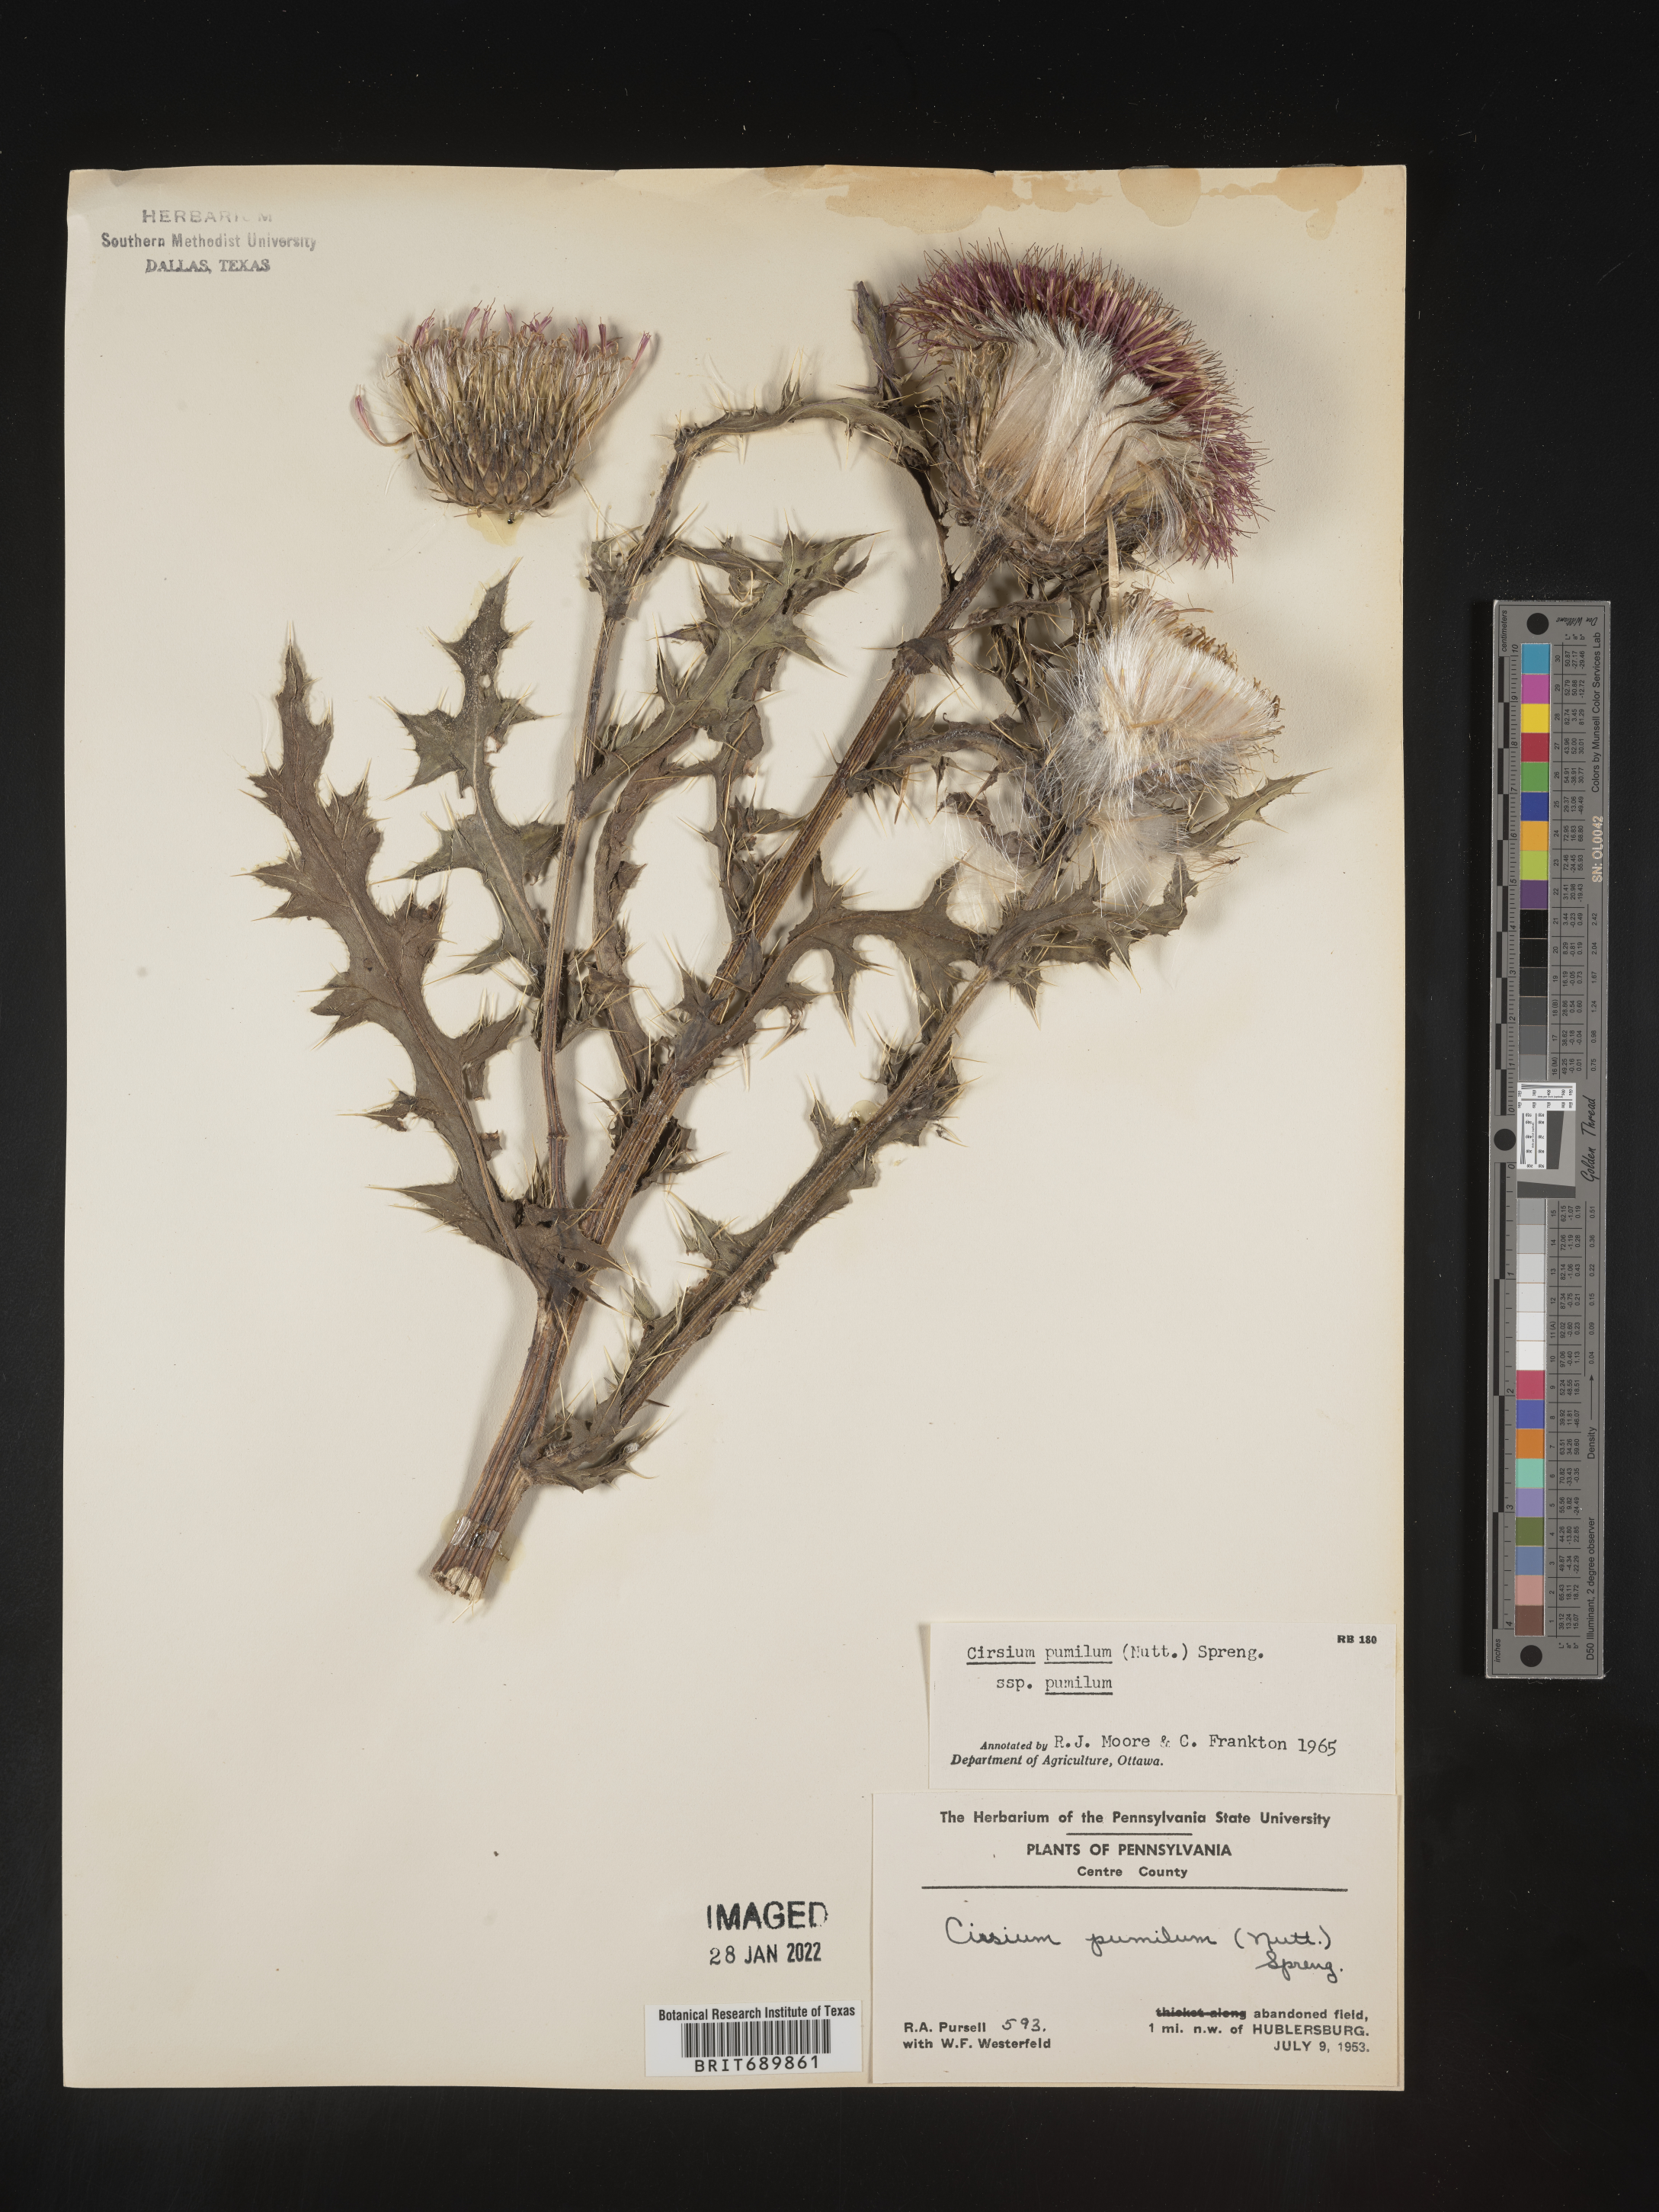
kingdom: Plantae
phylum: Tracheophyta
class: Magnoliopsida
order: Asterales
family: Asteraceae
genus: Cirsium
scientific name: Cirsium pumilum
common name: Pasture thistle
